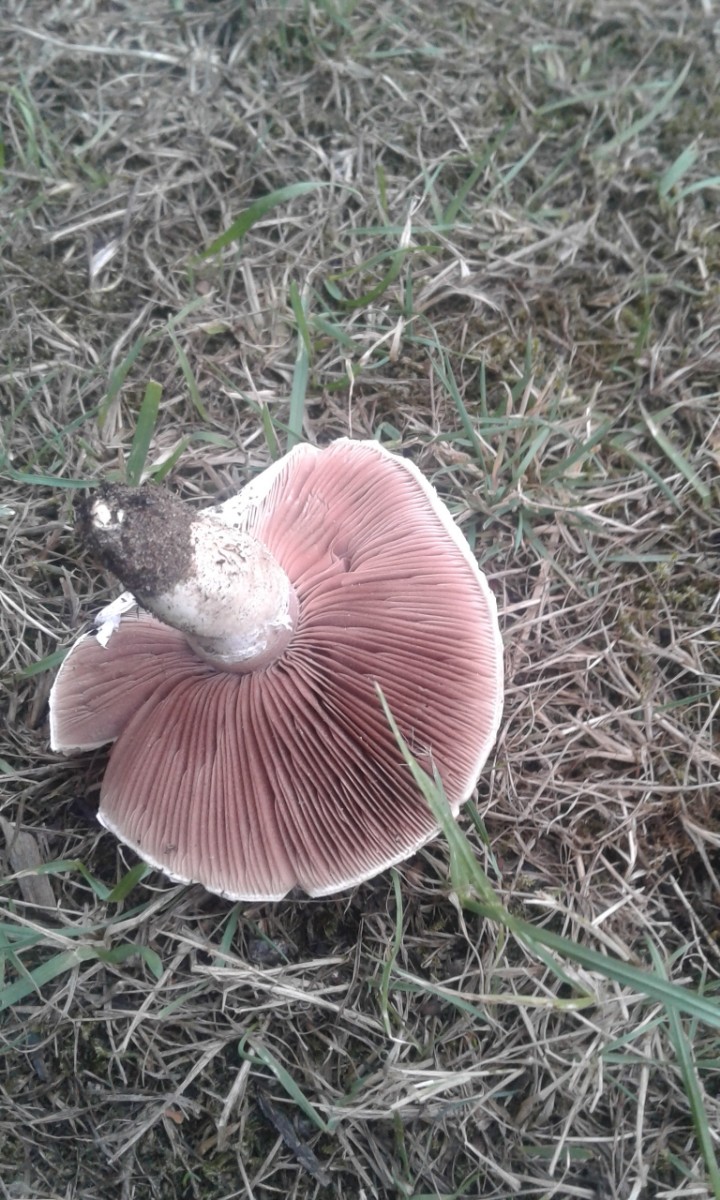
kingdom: Fungi
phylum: Basidiomycota
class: Agaricomycetes
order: Agaricales
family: Agaricaceae
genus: Agaricus
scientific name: Agaricus
